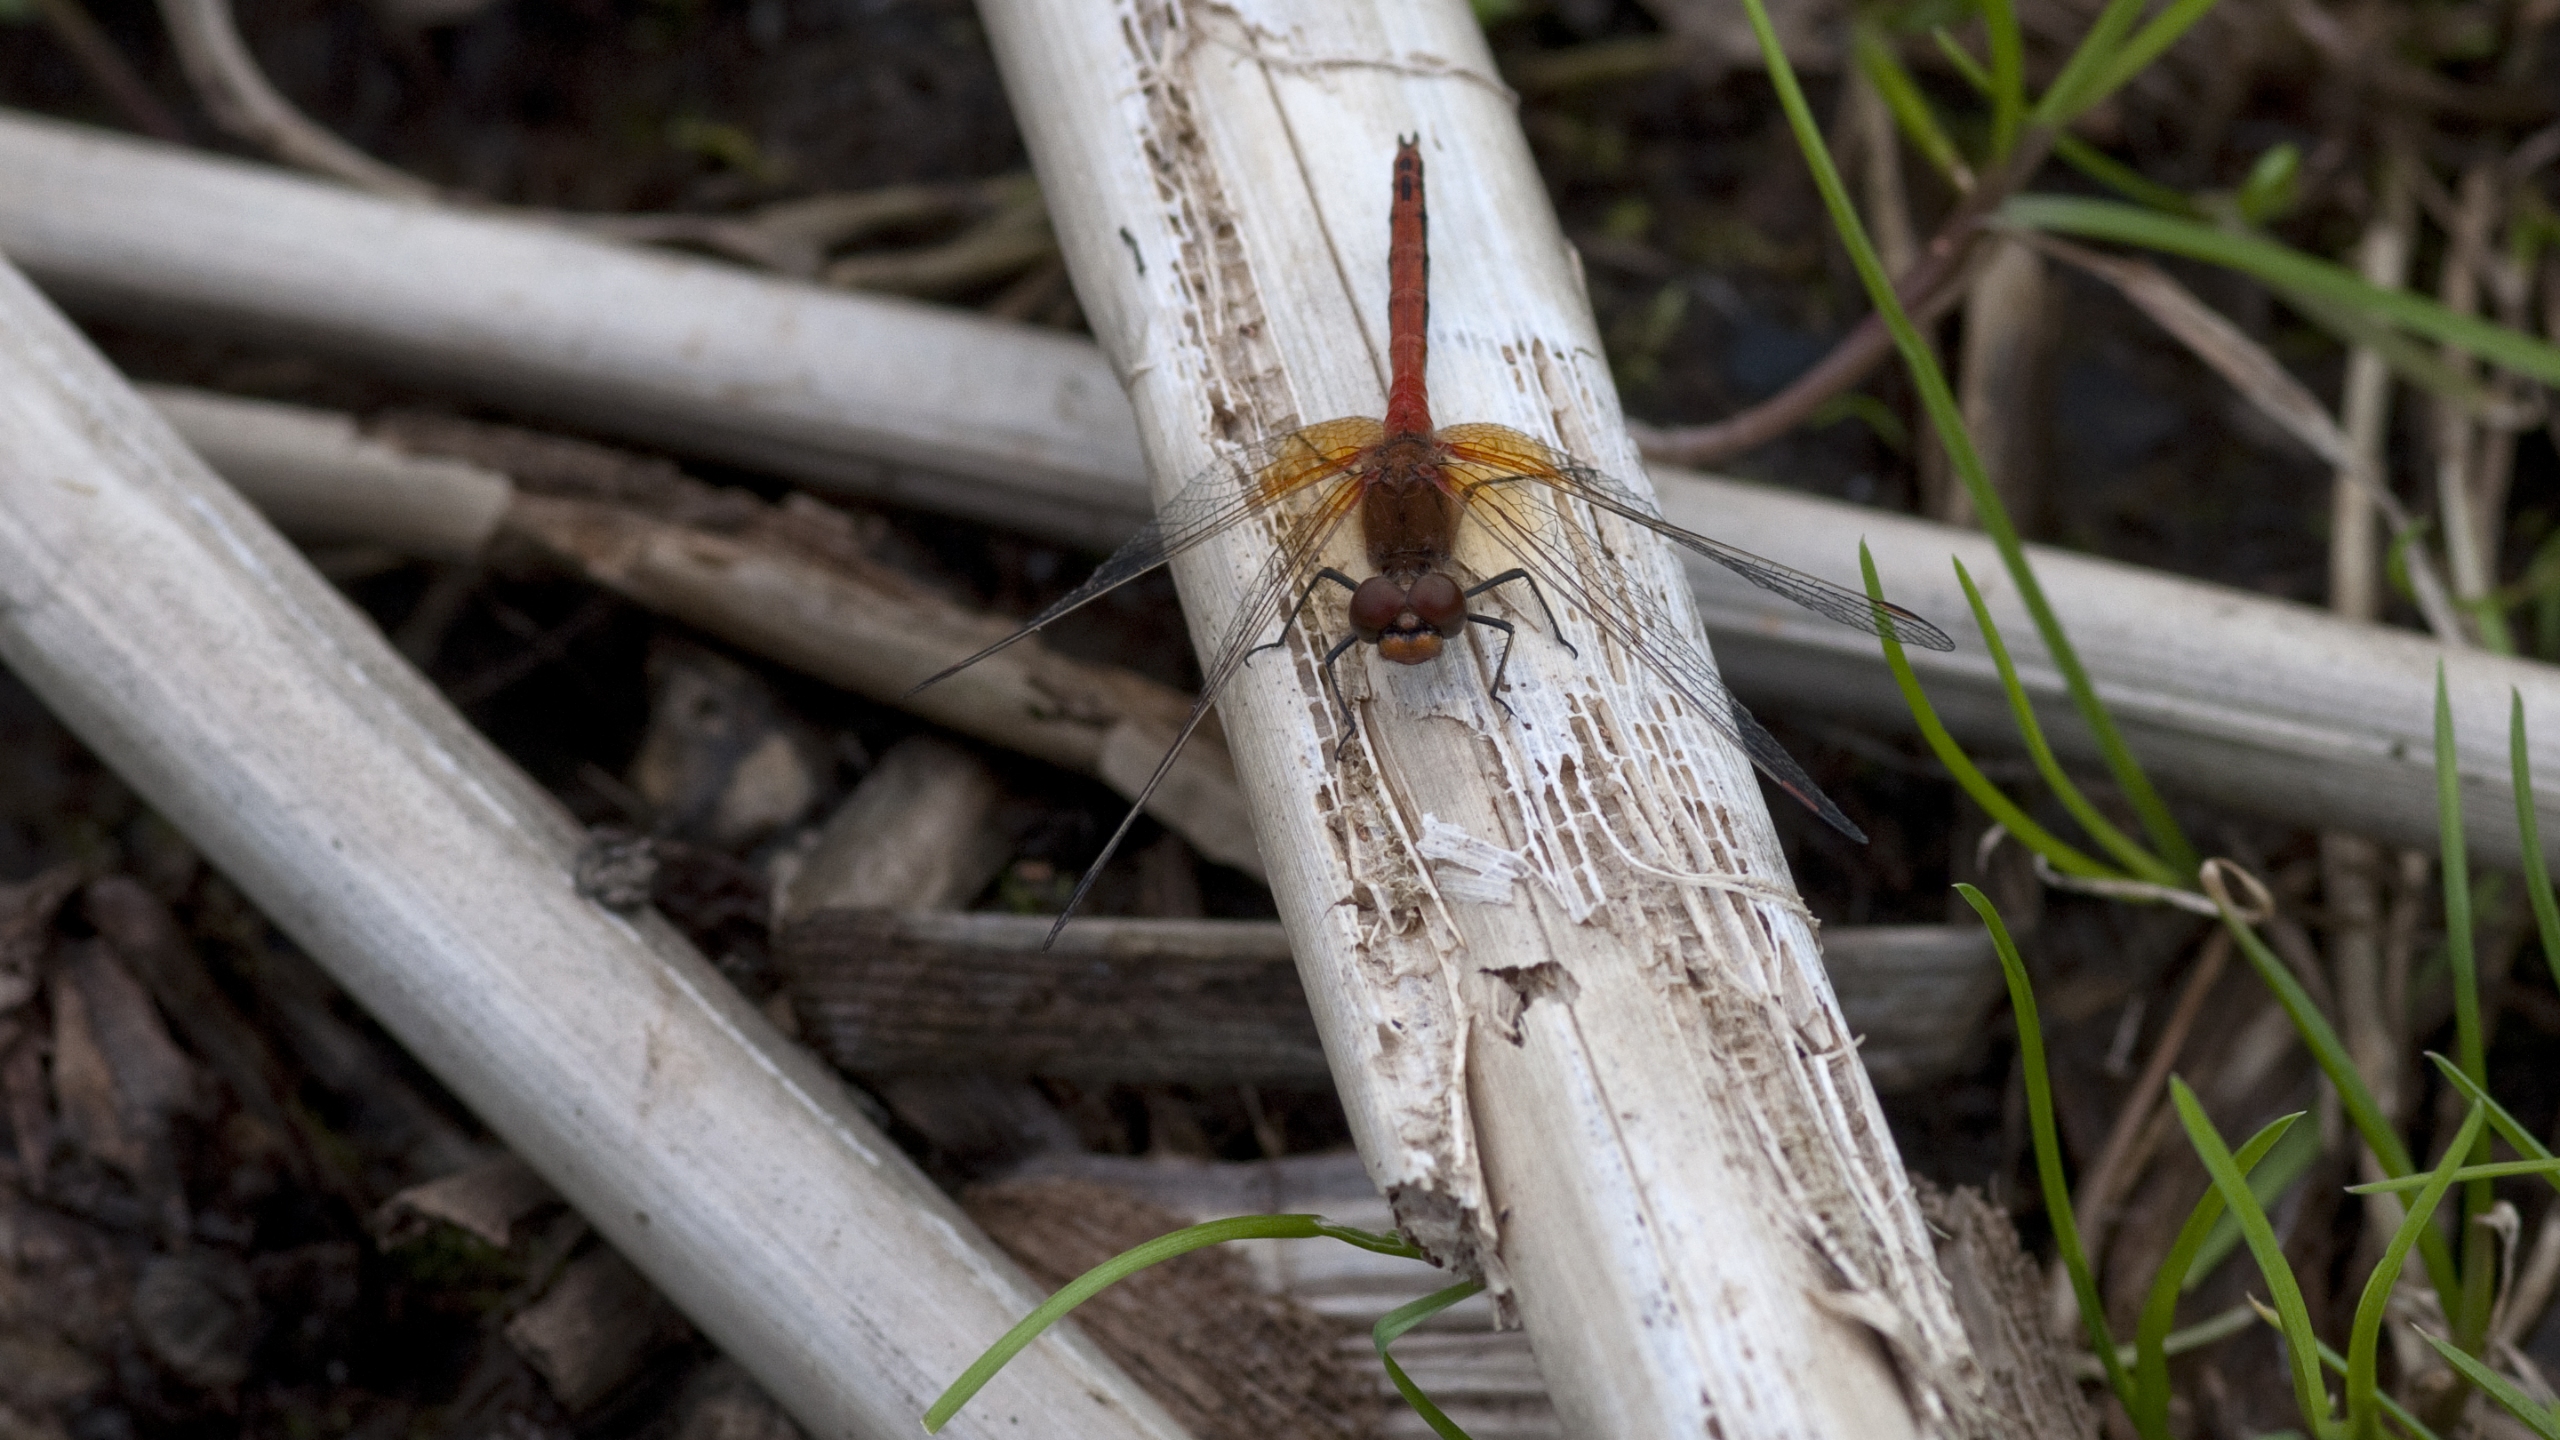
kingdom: Animalia
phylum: Arthropoda
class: Insecta
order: Odonata
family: Libellulidae
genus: Sympetrum
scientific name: Sympetrum flaveolum
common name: Gulvinget hedelibel
